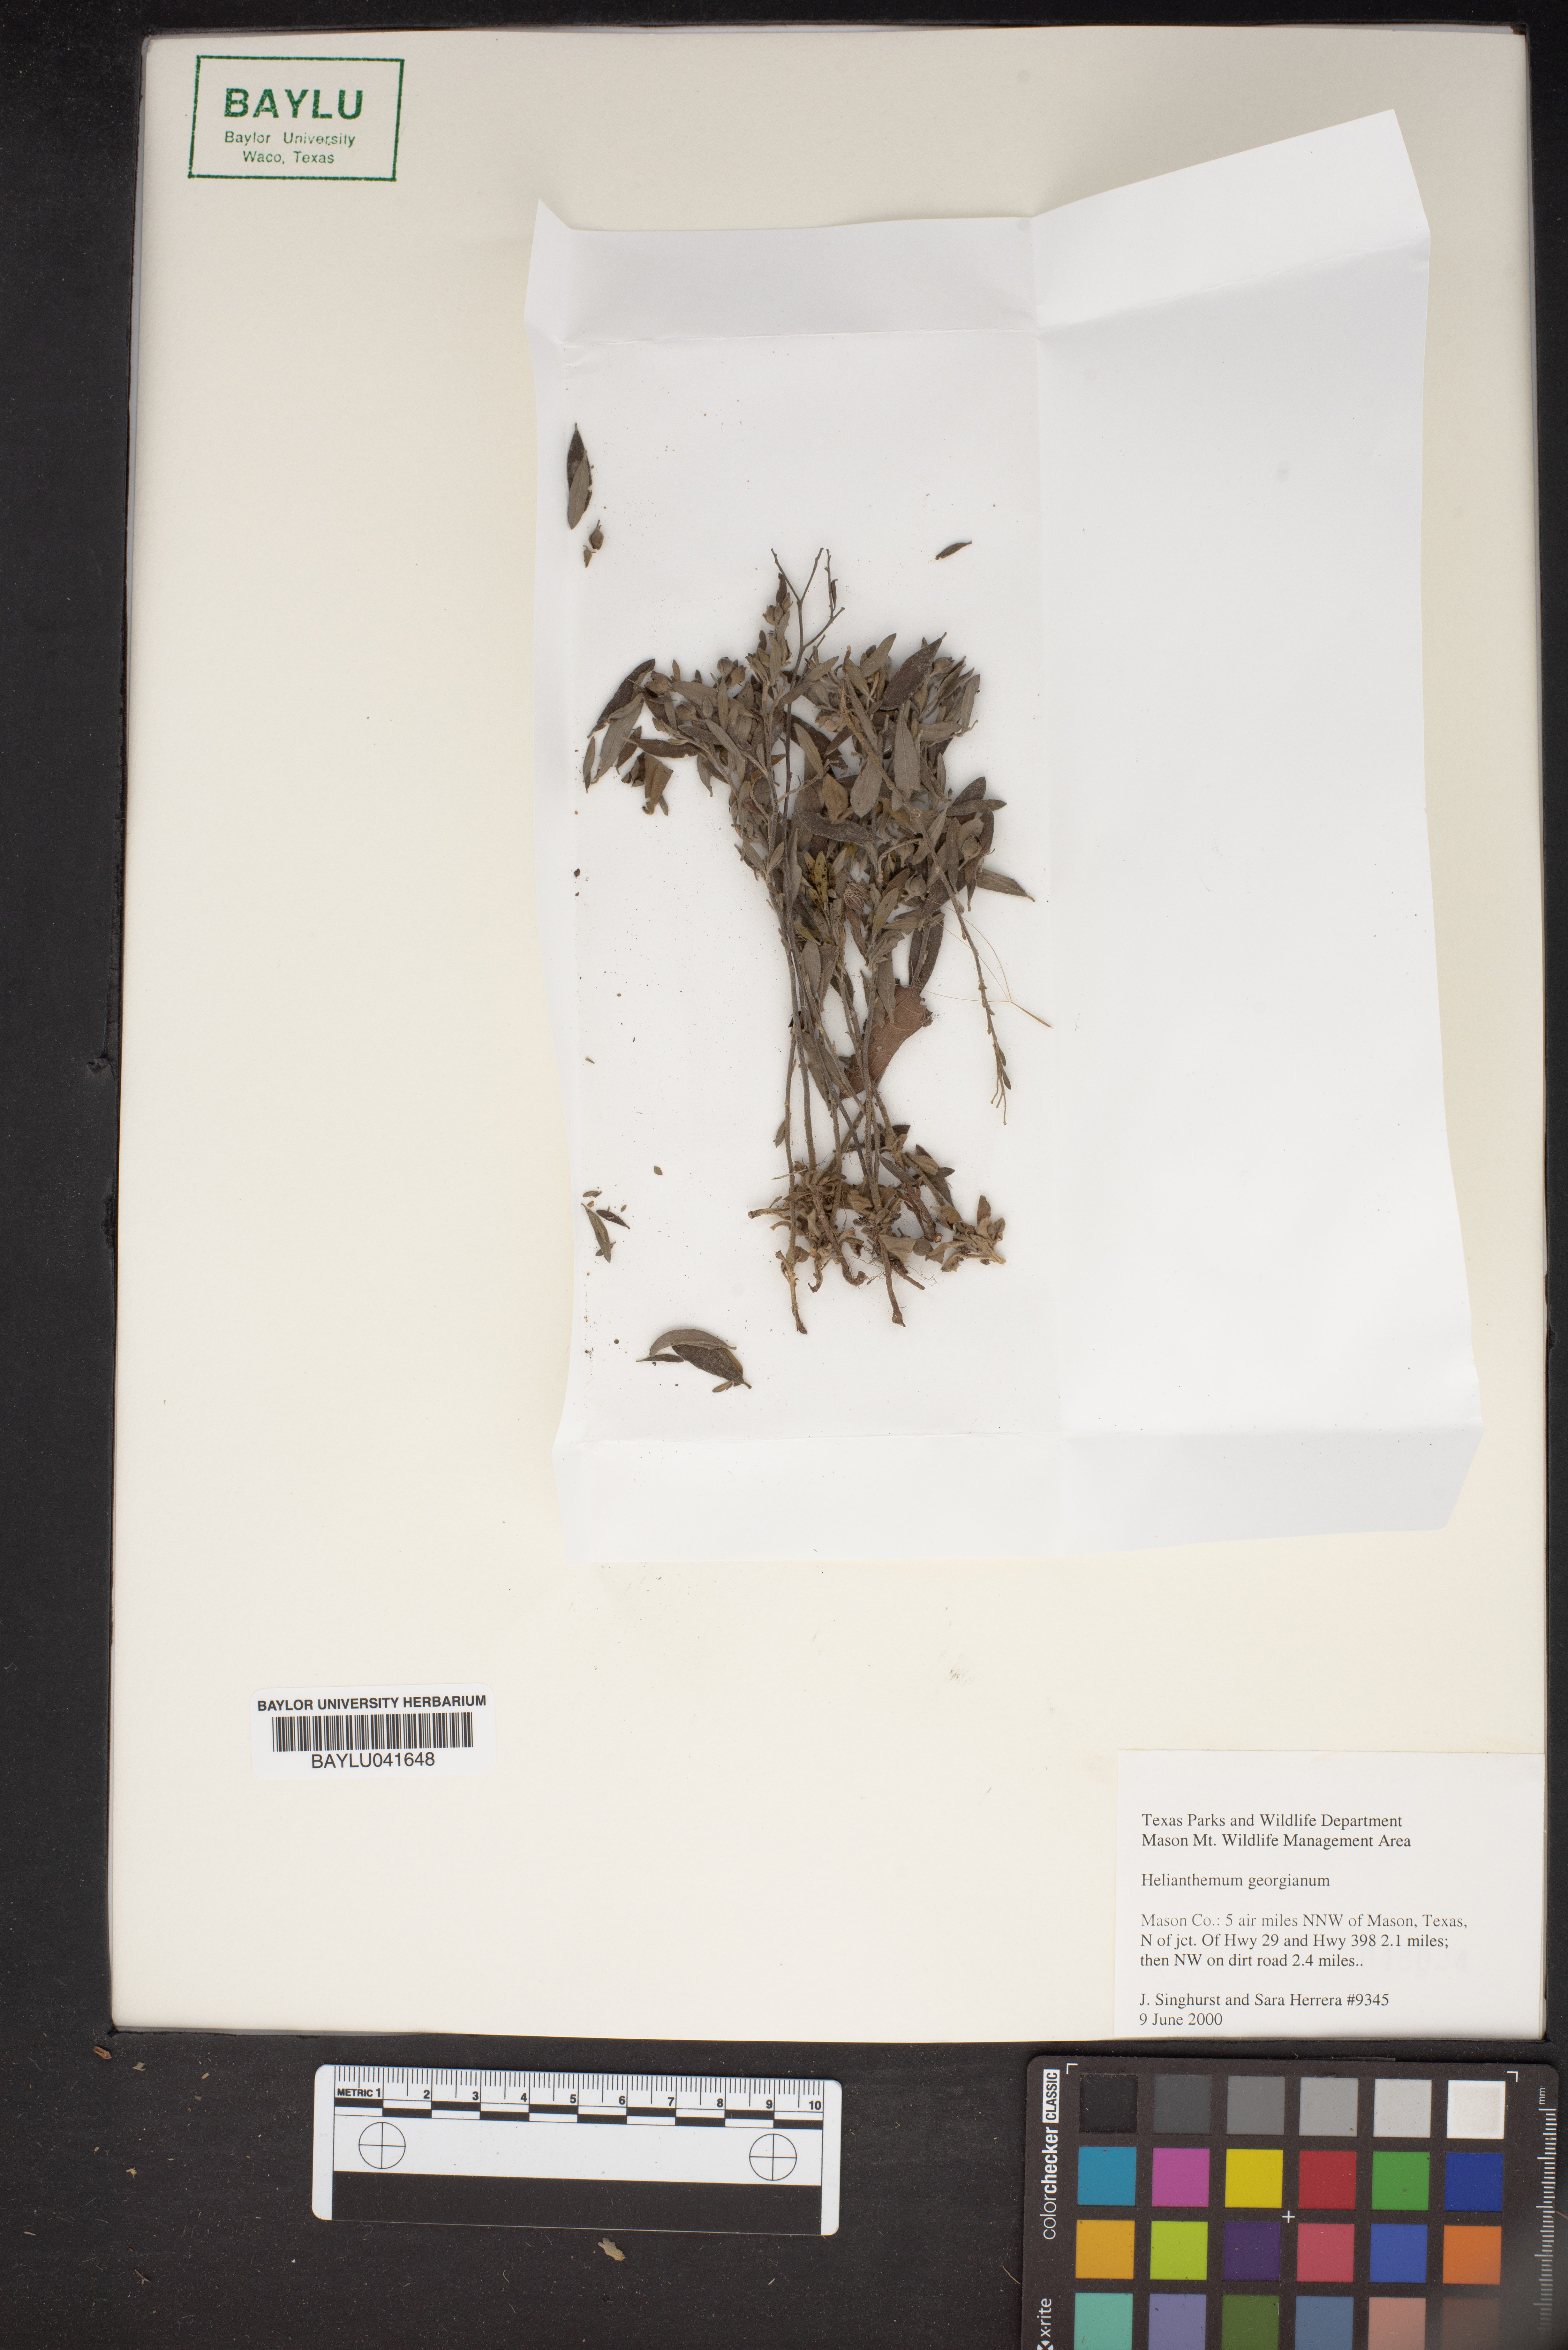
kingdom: Plantae
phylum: Tracheophyta
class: Magnoliopsida
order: Malvales
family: Cistaceae
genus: Crocanthemum
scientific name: Crocanthemum georgianum
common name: Georgia frostweed
